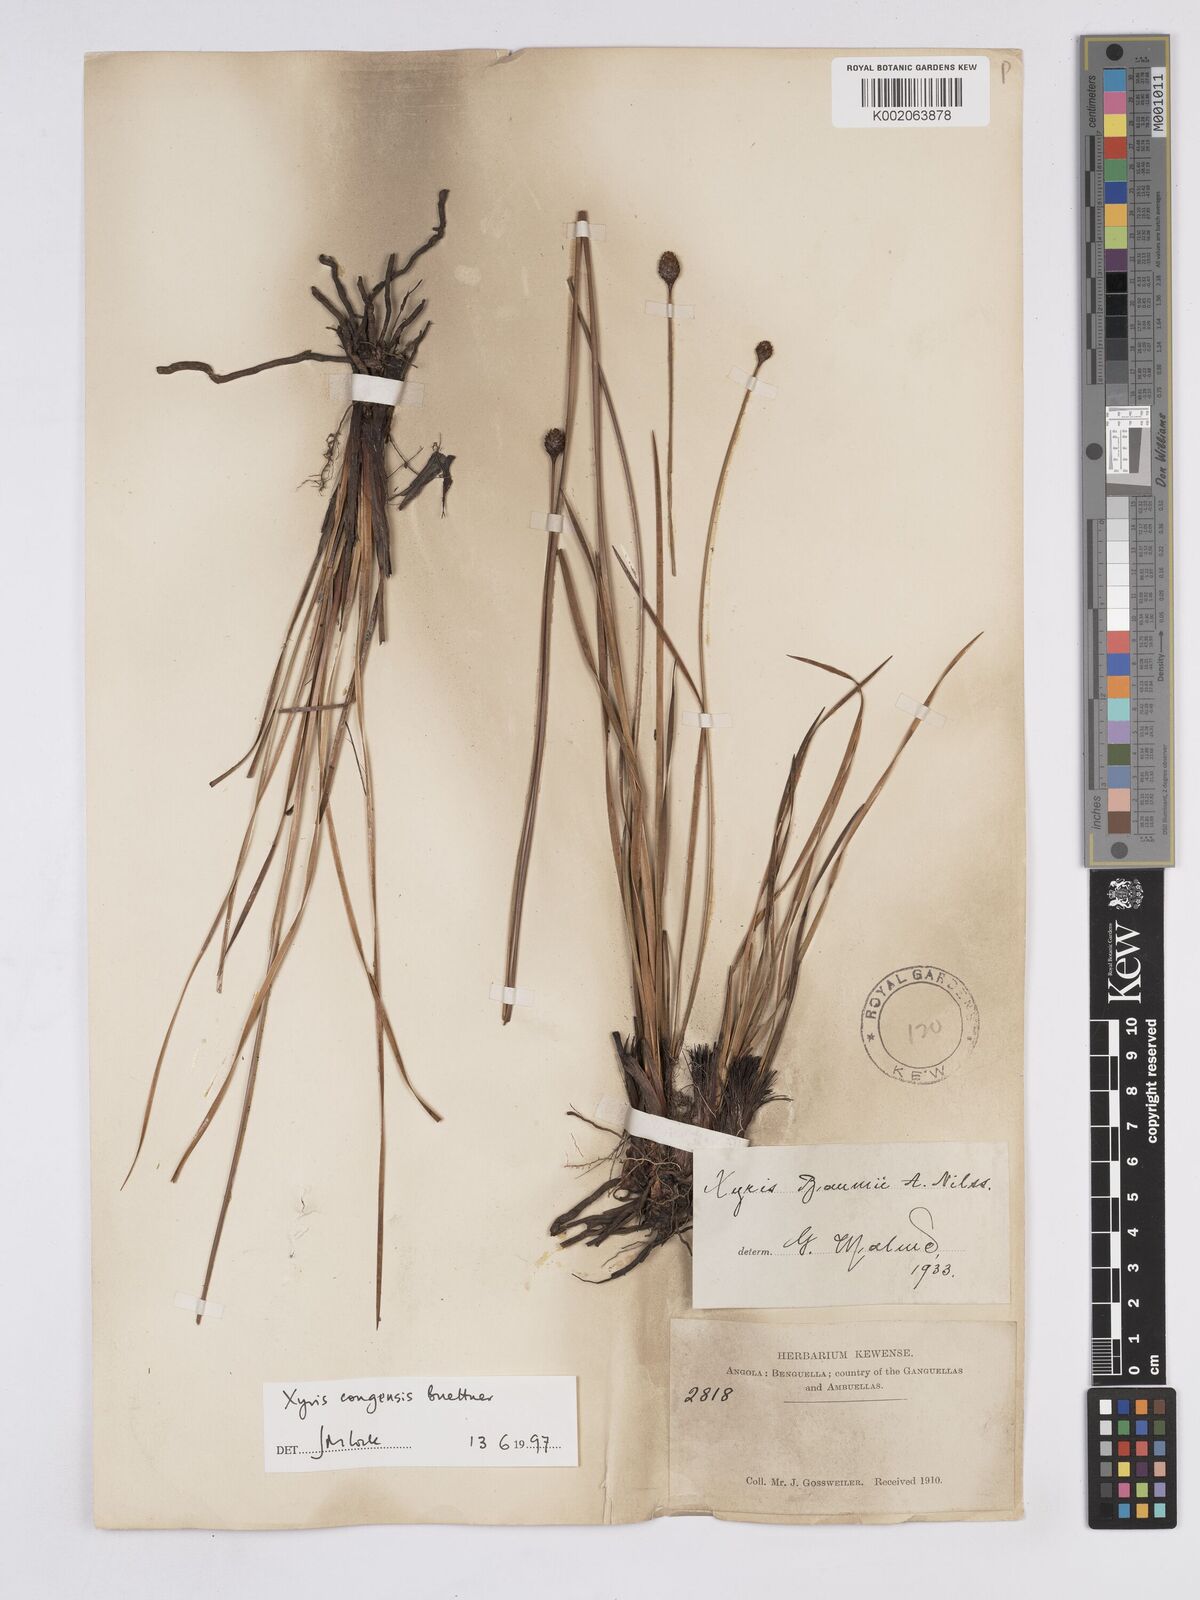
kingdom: Plantae
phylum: Tracheophyta
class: Liliopsida
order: Poales
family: Xyridaceae
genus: Xyris
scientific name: Xyris congensis
